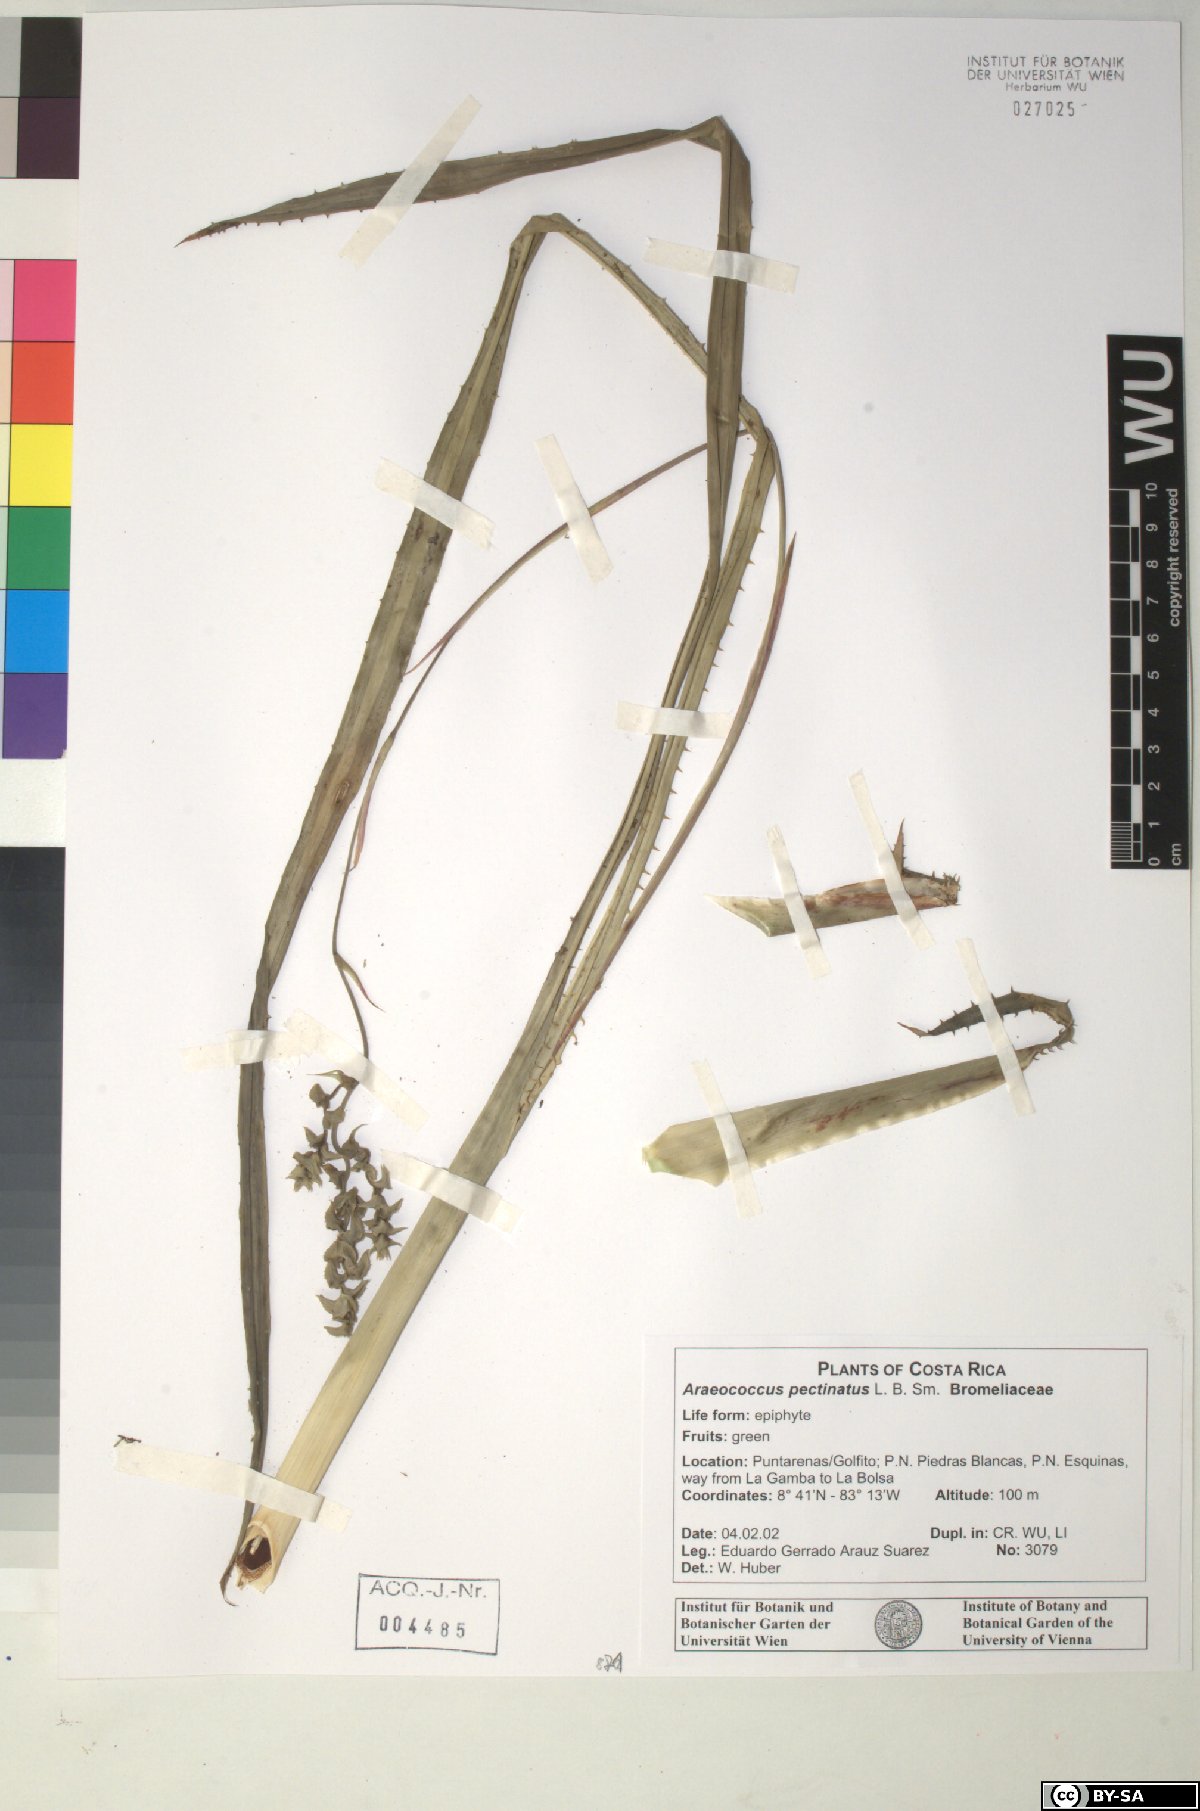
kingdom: Plantae
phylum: Tracheophyta
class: Liliopsida
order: Poales
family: Bromeliaceae
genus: Araeococcus
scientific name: Araeococcus pectinatus
